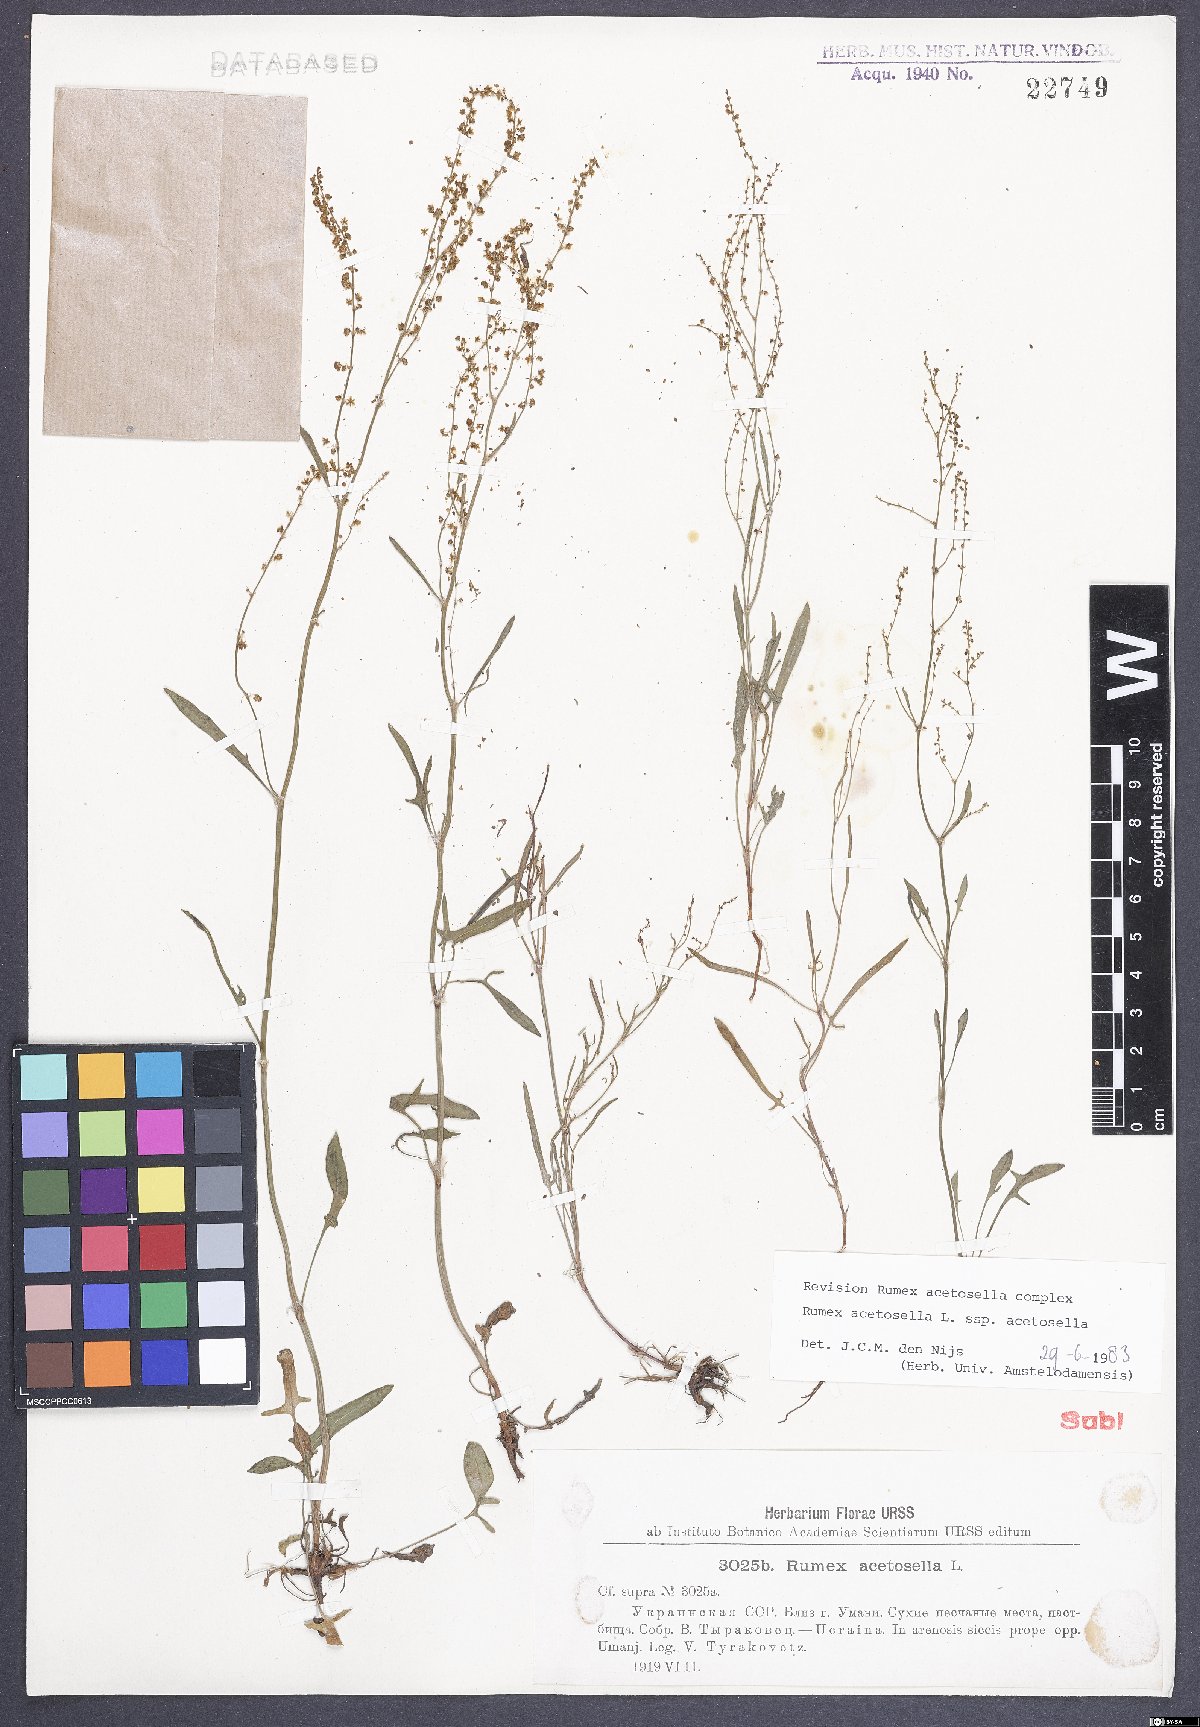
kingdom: Plantae
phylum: Tracheophyta
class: Magnoliopsida
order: Caryophyllales
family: Polygonaceae
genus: Rumex
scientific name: Rumex acetosella
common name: Common sheep sorrel
